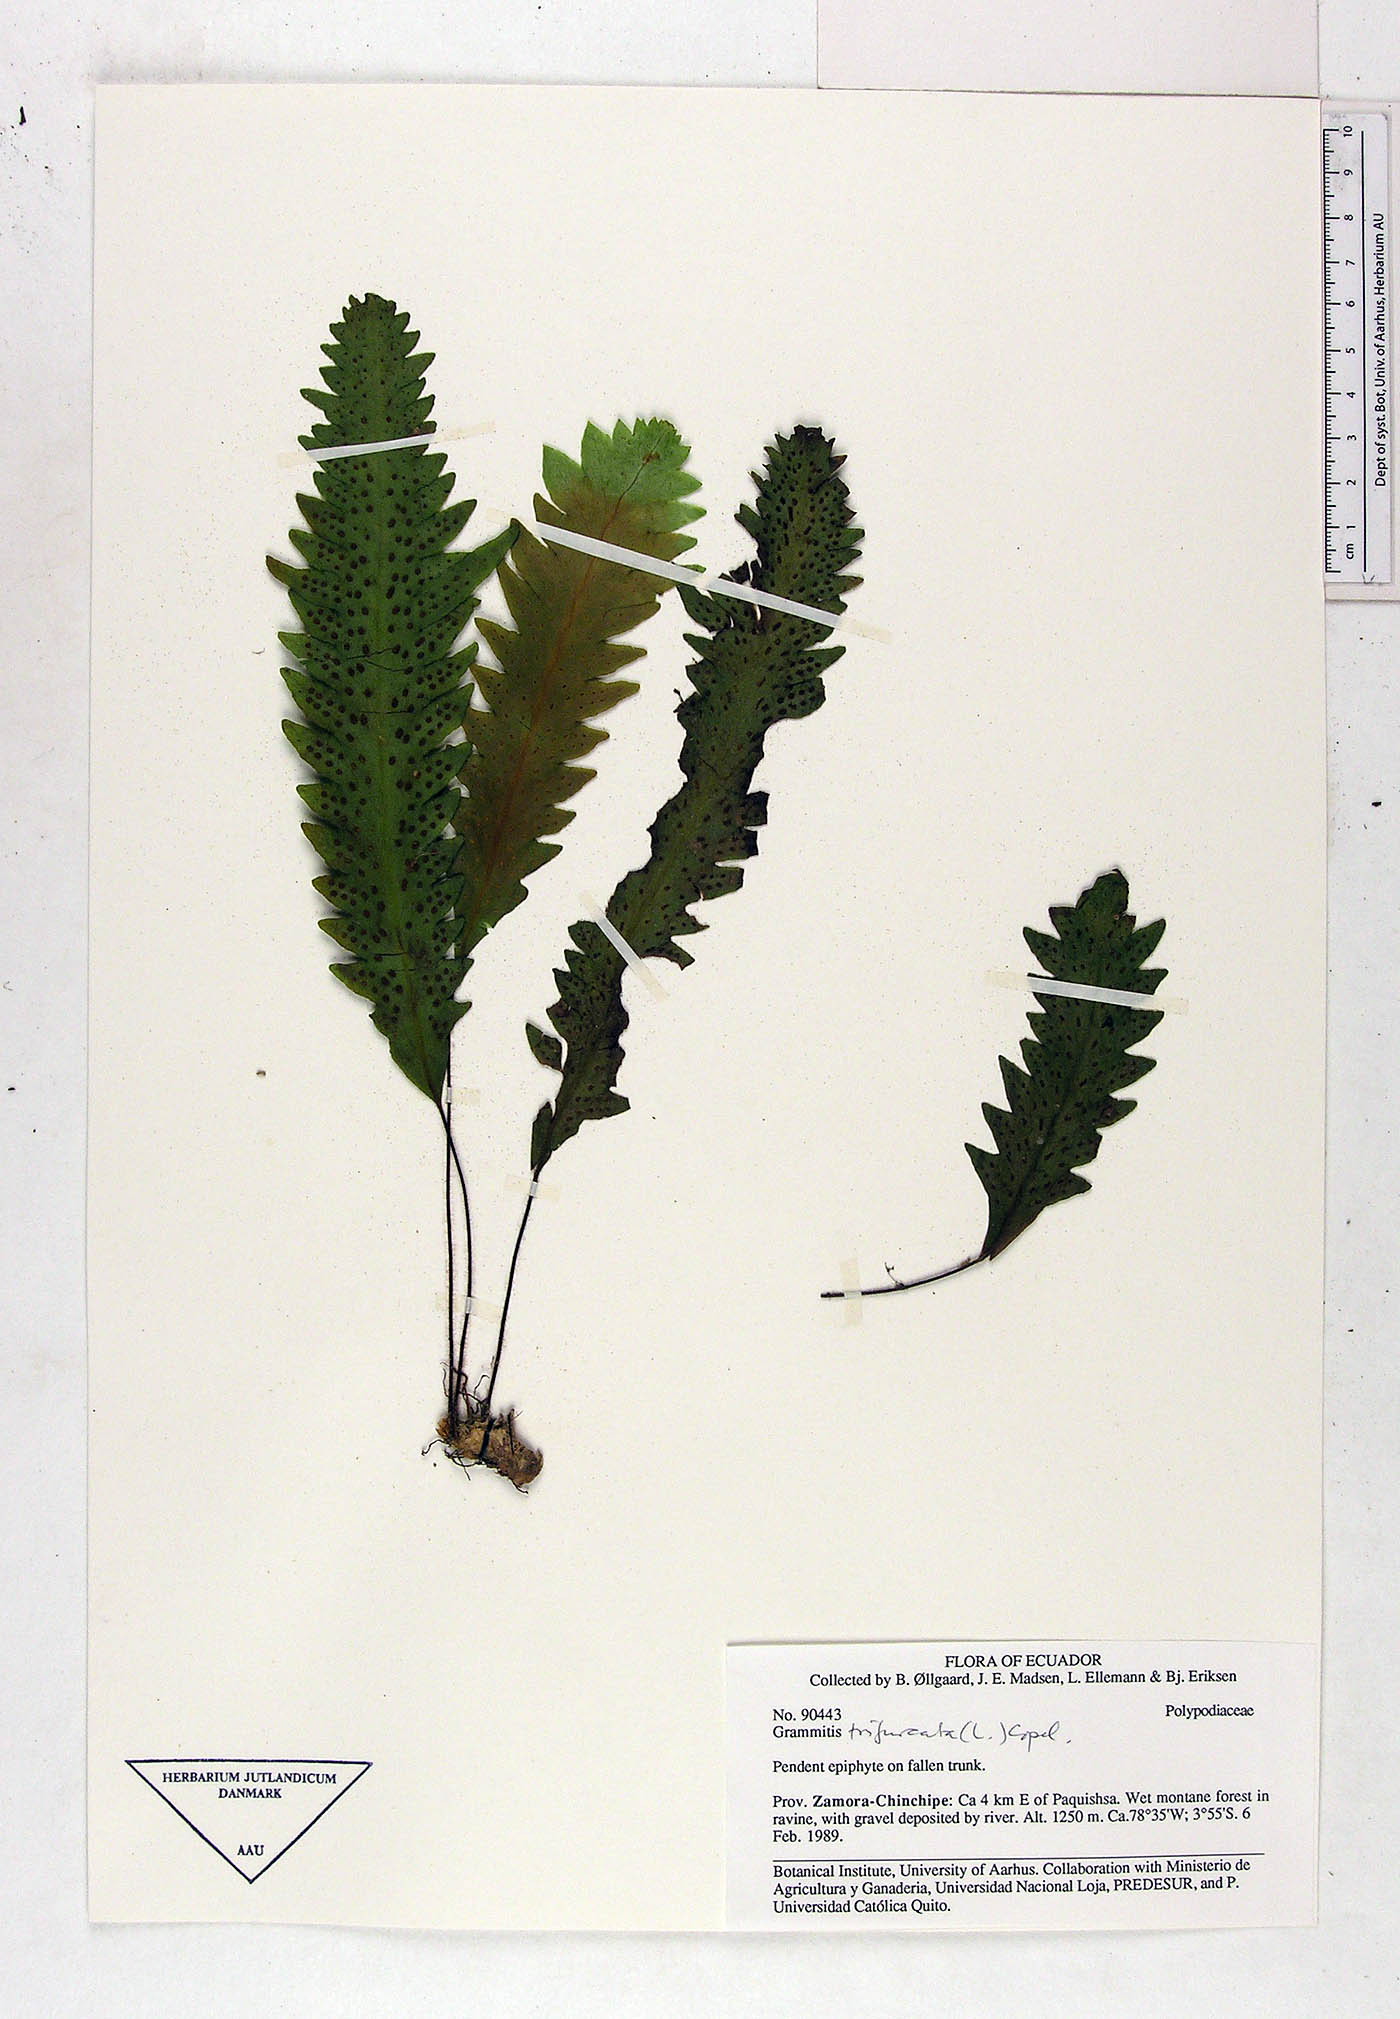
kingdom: Plantae
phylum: Tracheophyta
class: Polypodiopsida
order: Polypodiales
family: Polypodiaceae
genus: Grammitis
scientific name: Grammitis
